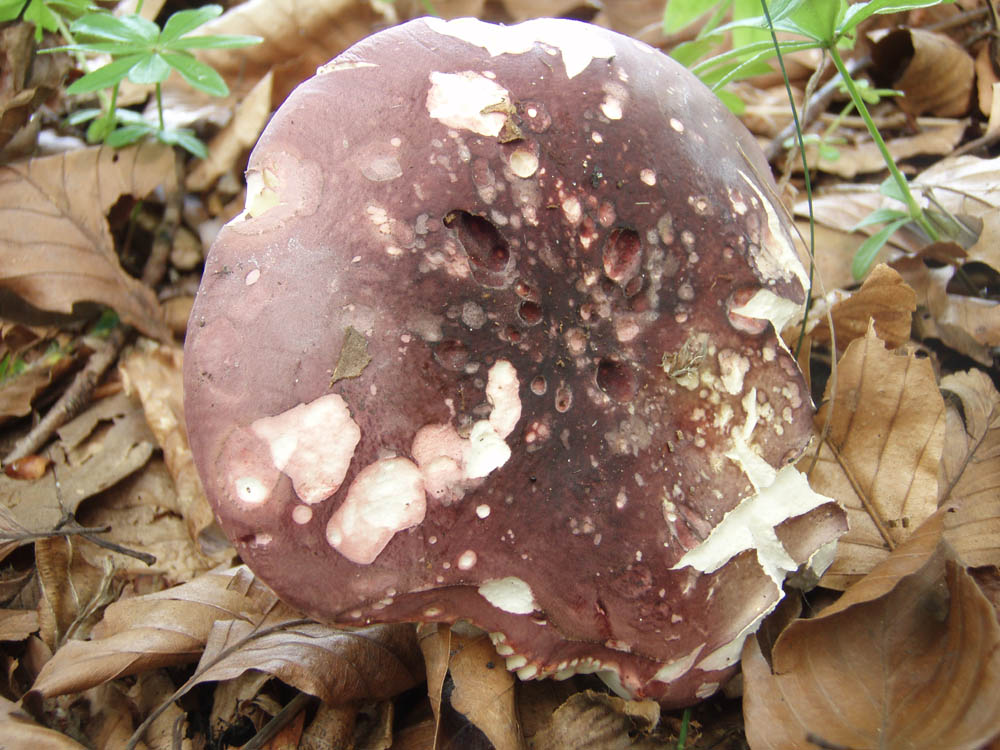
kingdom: Fungi
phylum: Basidiomycota
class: Agaricomycetes
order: Russulales
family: Russulaceae
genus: Russula
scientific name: Russula olivacea
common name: stor skørhat
